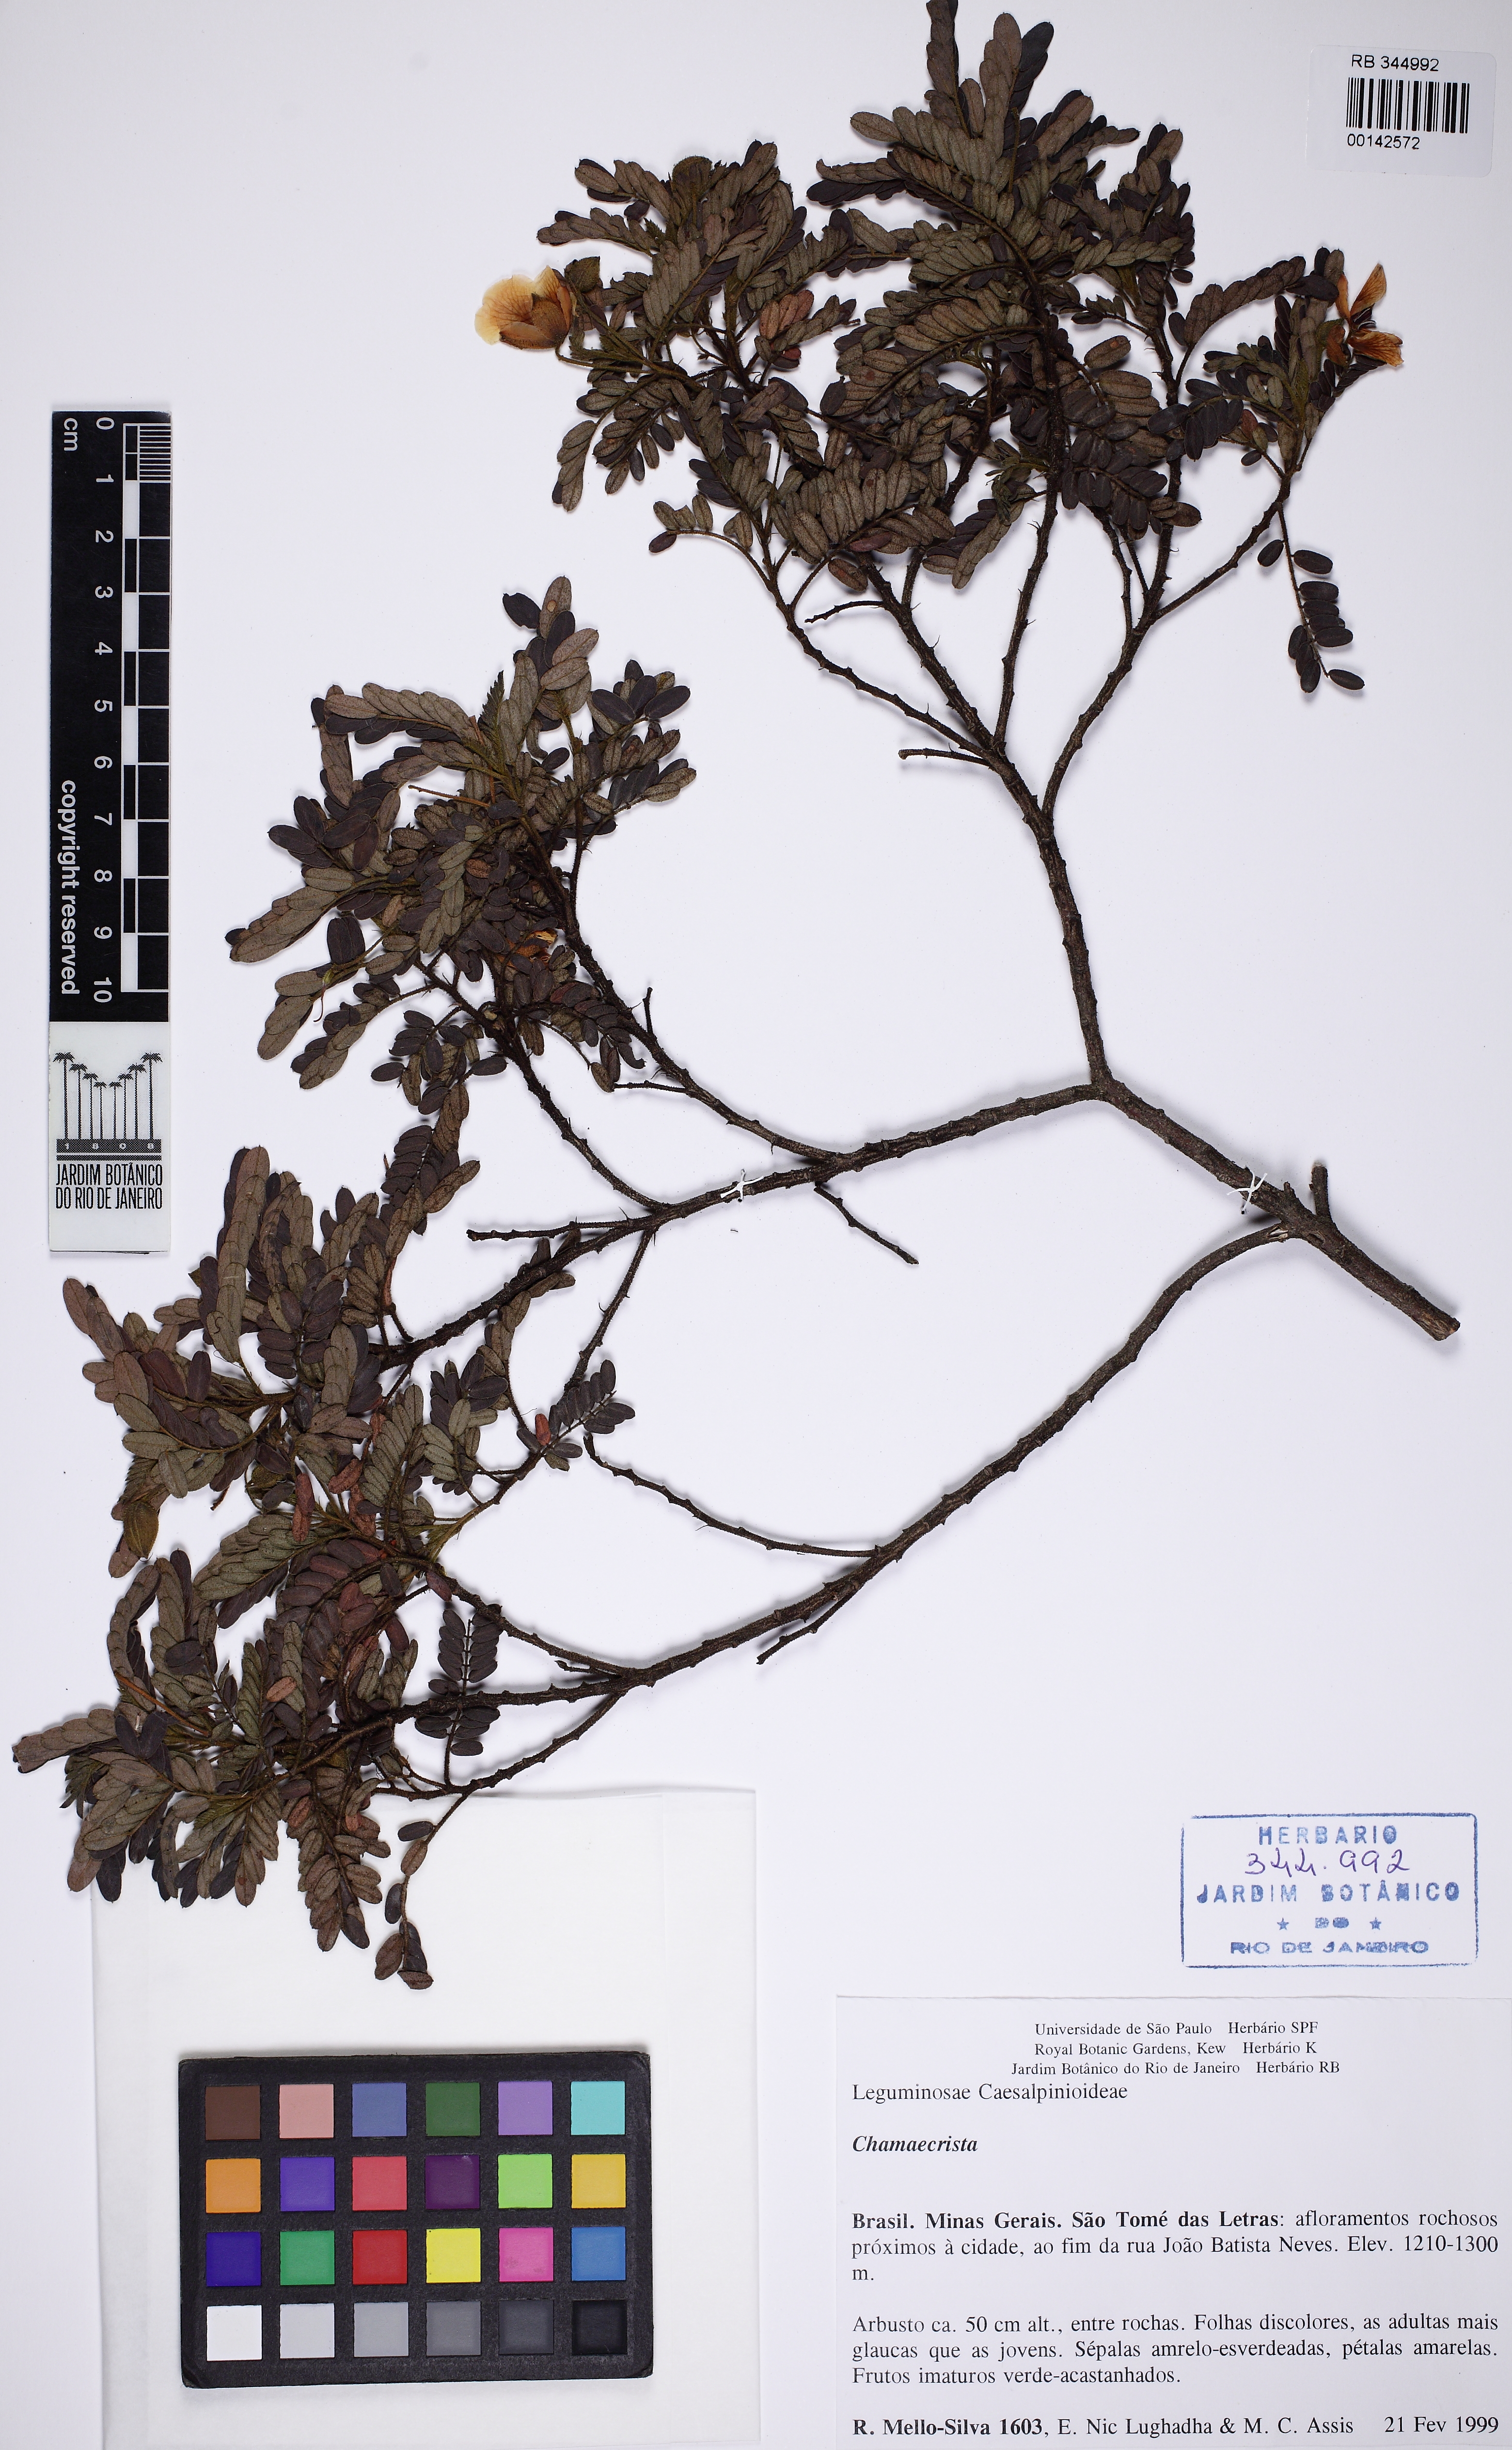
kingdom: Plantae
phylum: Tracheophyta
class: Magnoliopsida
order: Fabales
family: Fabaceae
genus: Chamaecrista
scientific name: Chamaecrista
